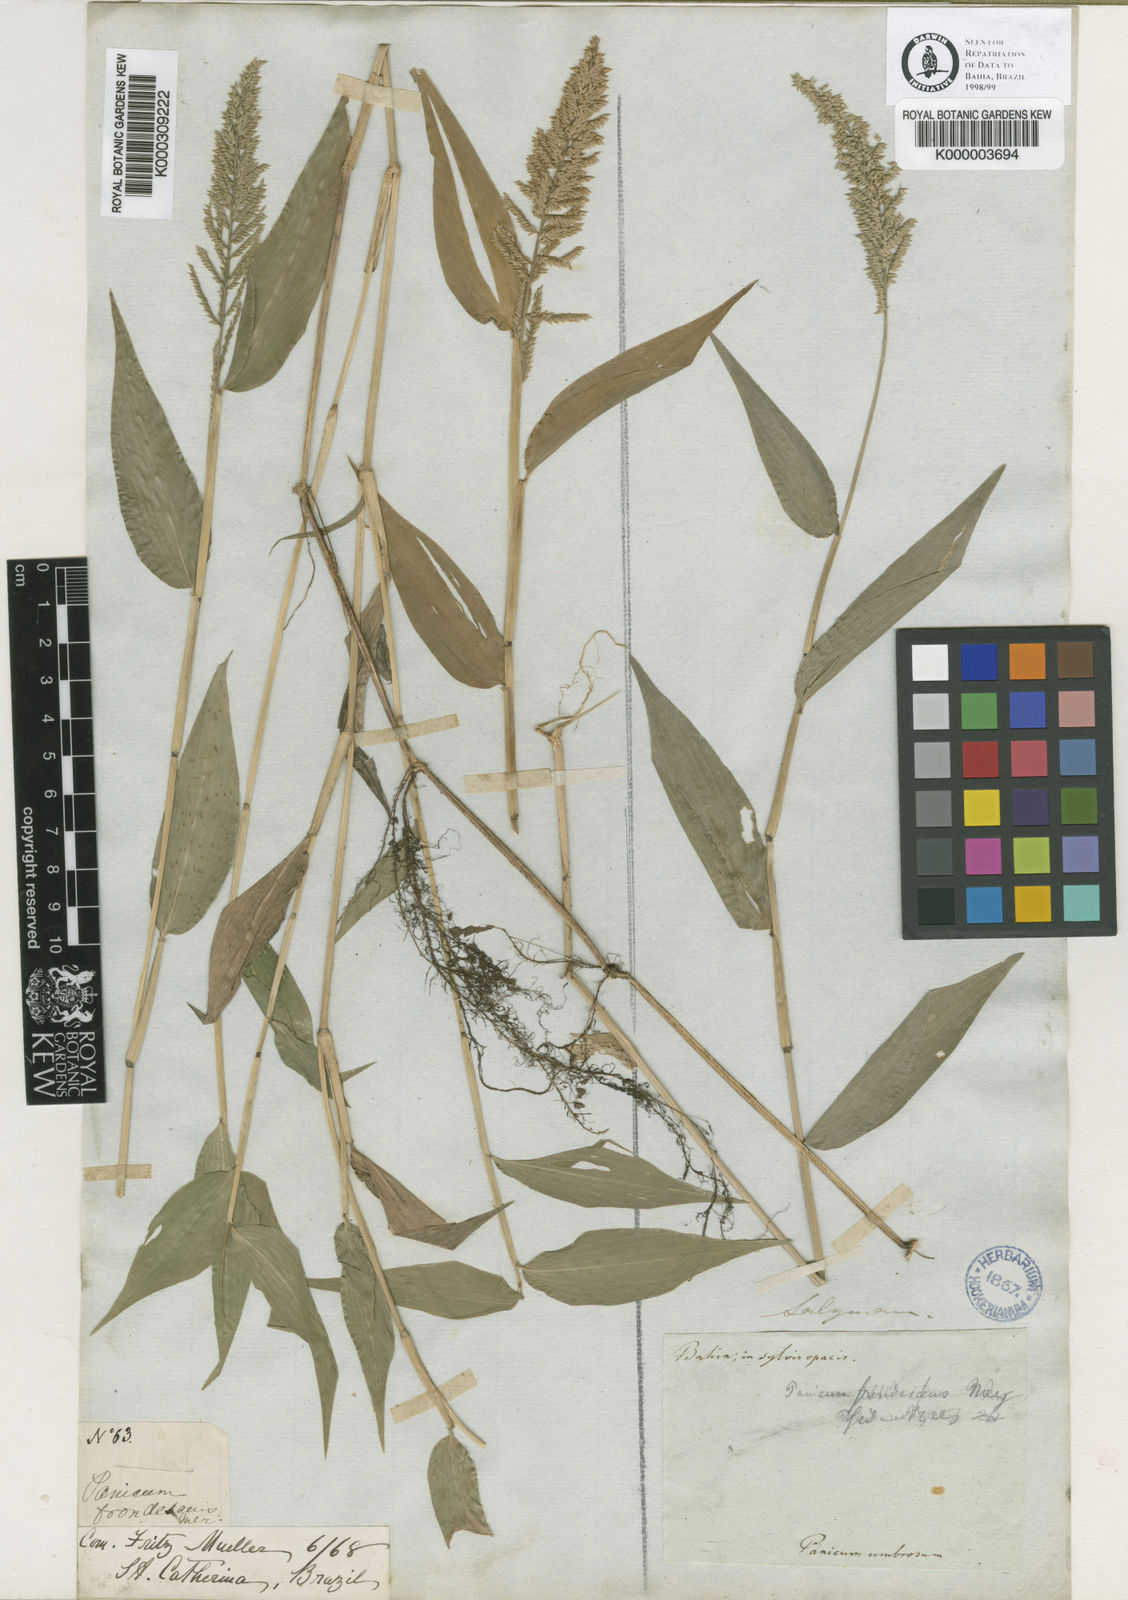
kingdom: Plantae
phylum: Tracheophyta
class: Liliopsida
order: Poales
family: Poaceae
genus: Ocellochloa
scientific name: Ocellochloa stolonifera
